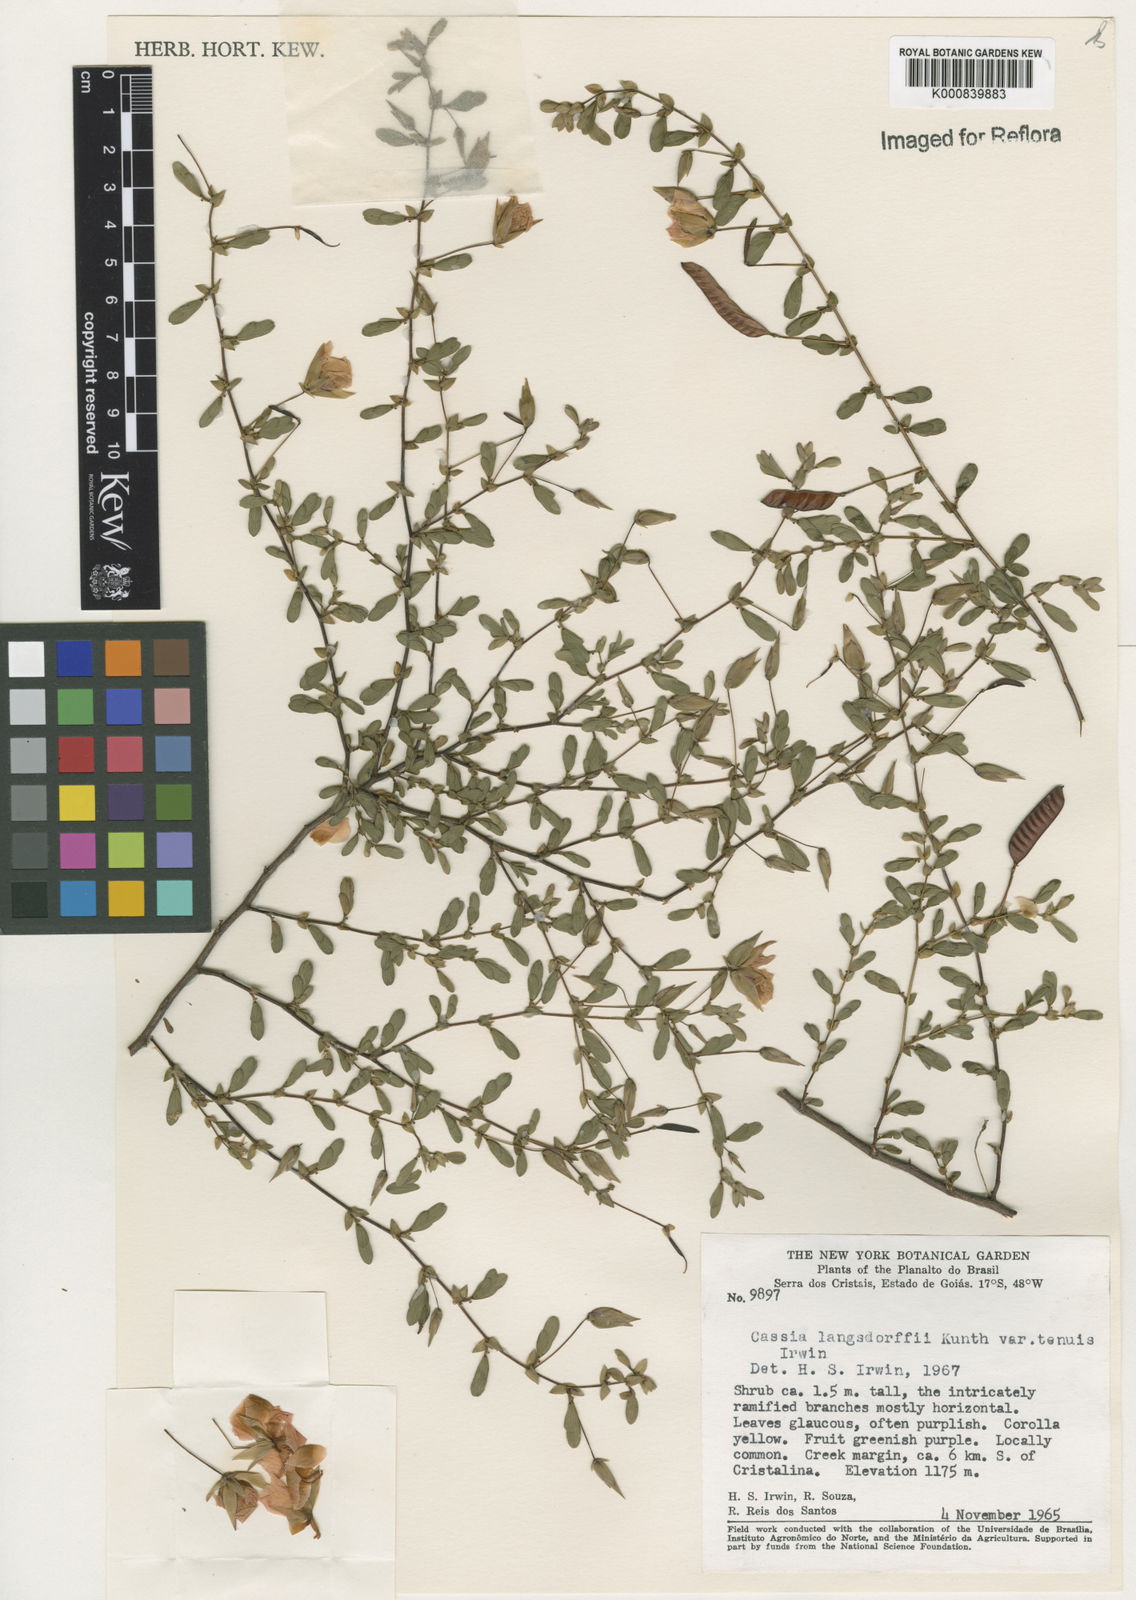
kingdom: Plantae
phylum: Tracheophyta
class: Magnoliopsida
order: Fabales
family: Fabaceae
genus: Chamaecrista
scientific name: Chamaecrista ramosa
